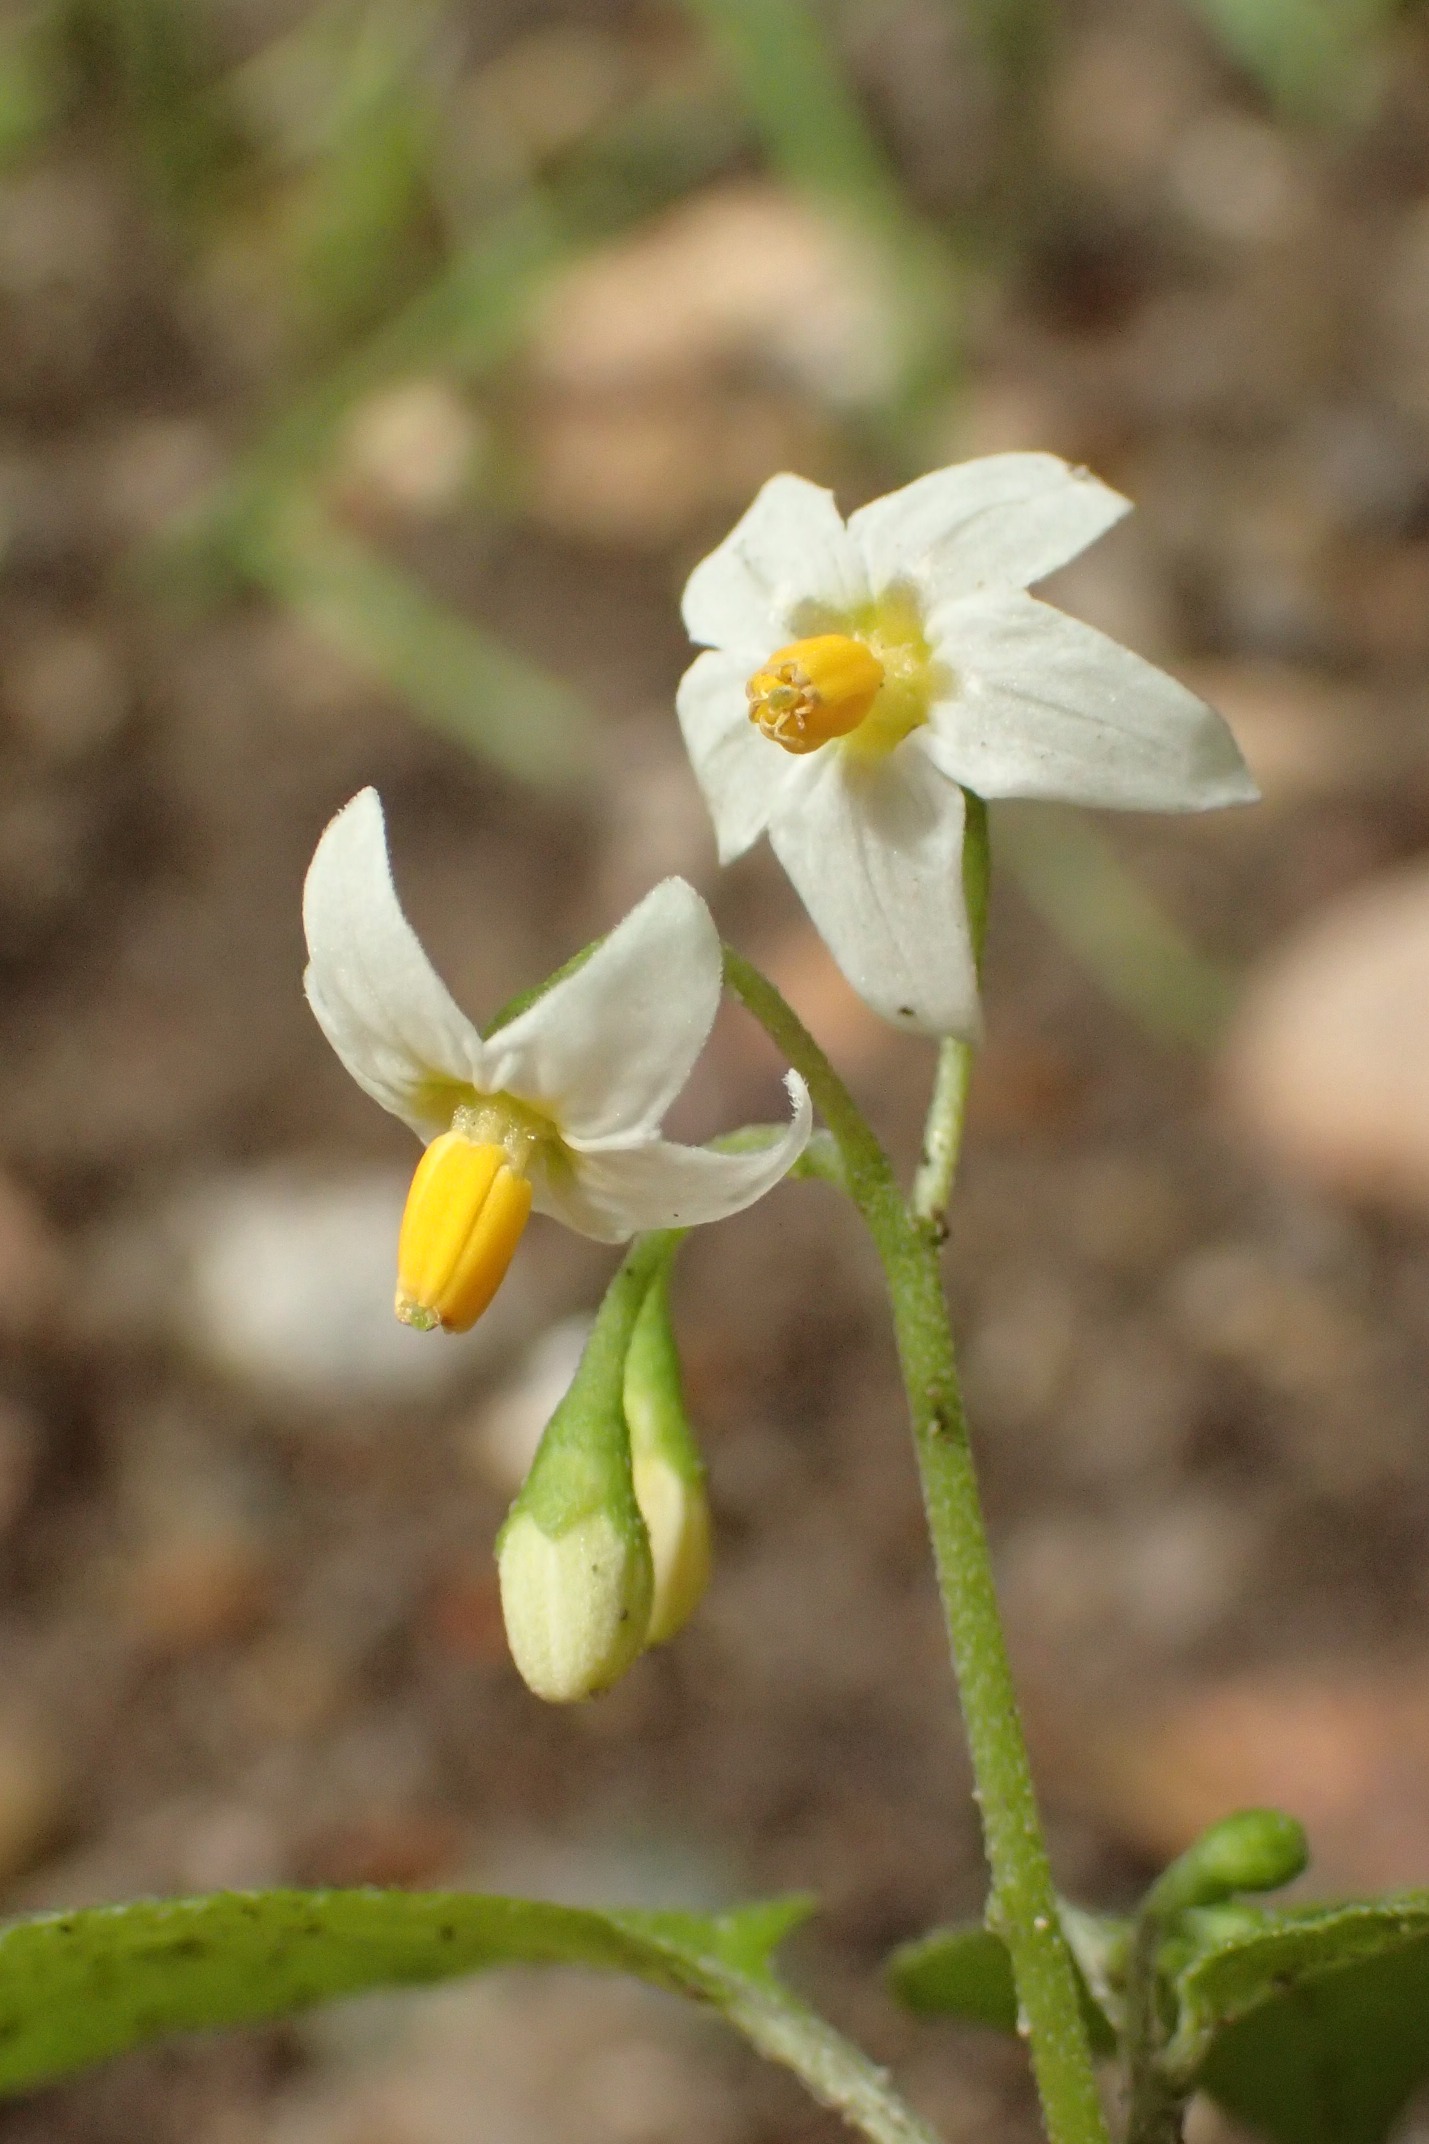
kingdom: Plantae
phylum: Tracheophyta
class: Magnoliopsida
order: Solanales
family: Solanaceae
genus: Solanum
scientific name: Solanum nigrum
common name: Sort natskygge
